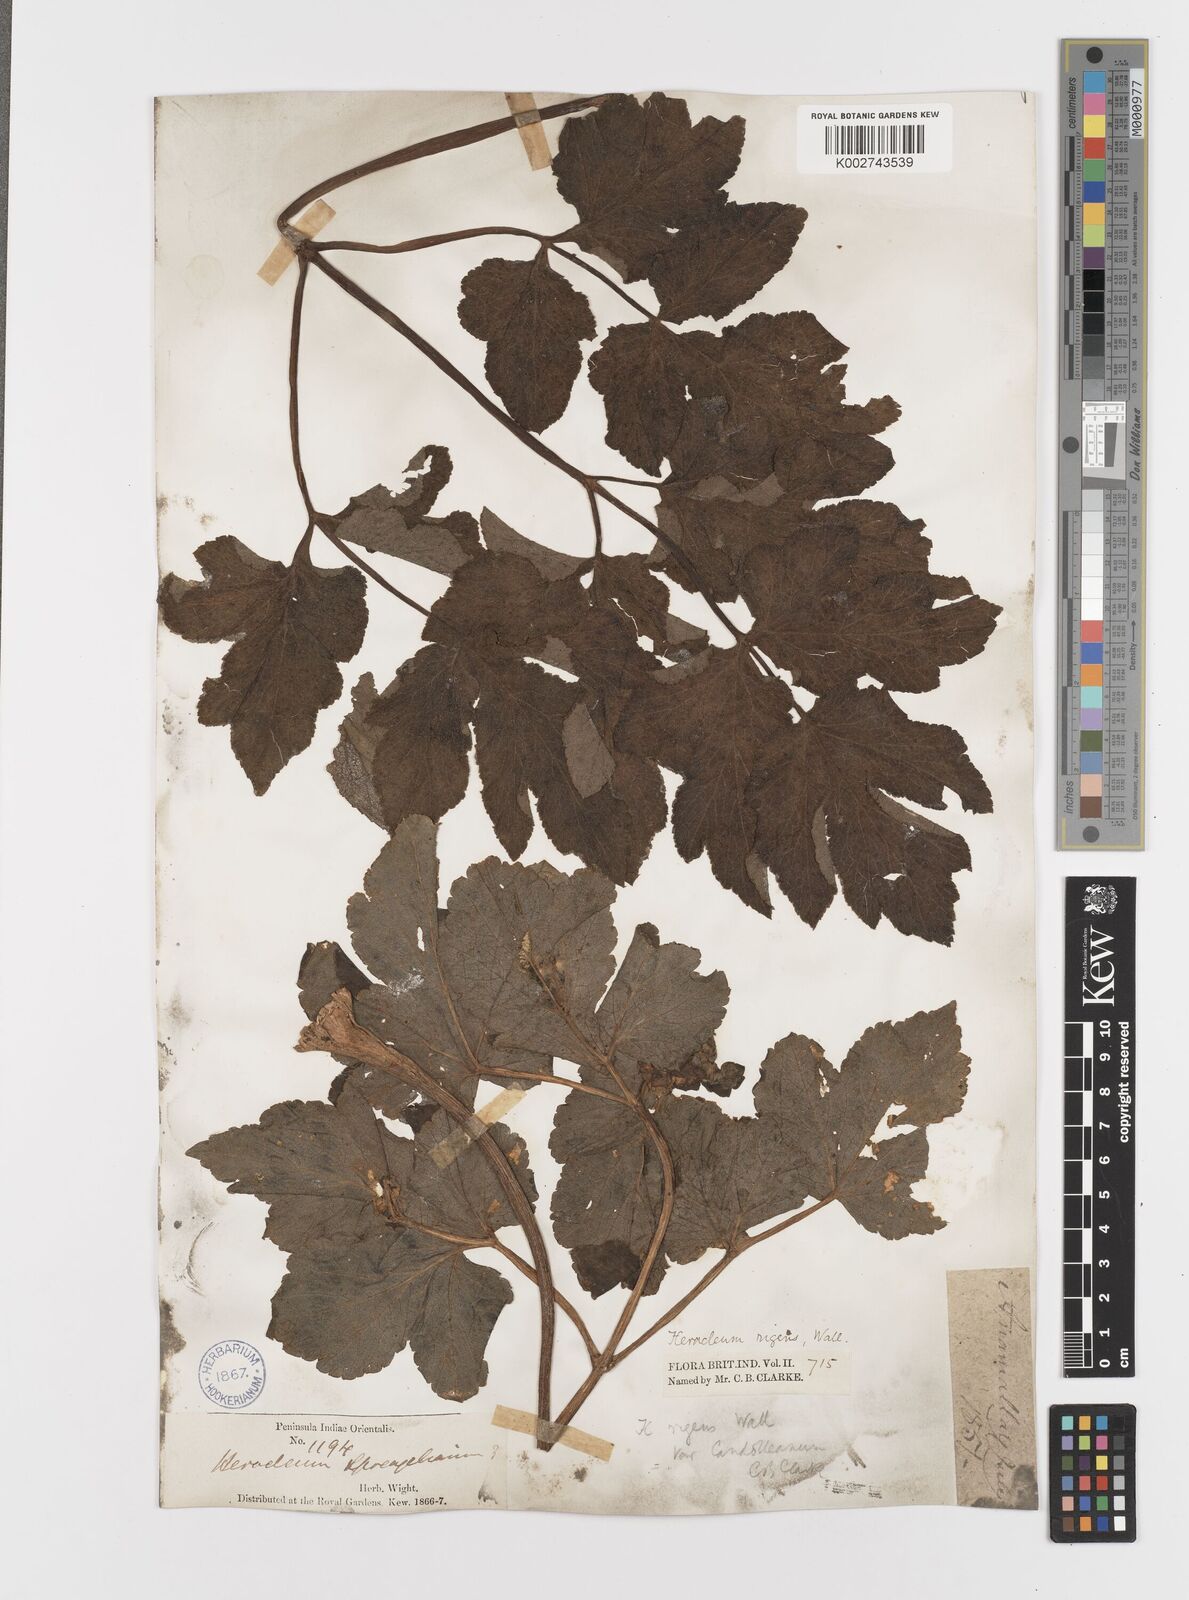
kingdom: Plantae
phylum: Tracheophyta
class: Magnoliopsida
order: Apiales
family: Apiaceae
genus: Tetrataenium
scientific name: Tetrataenium rigens
